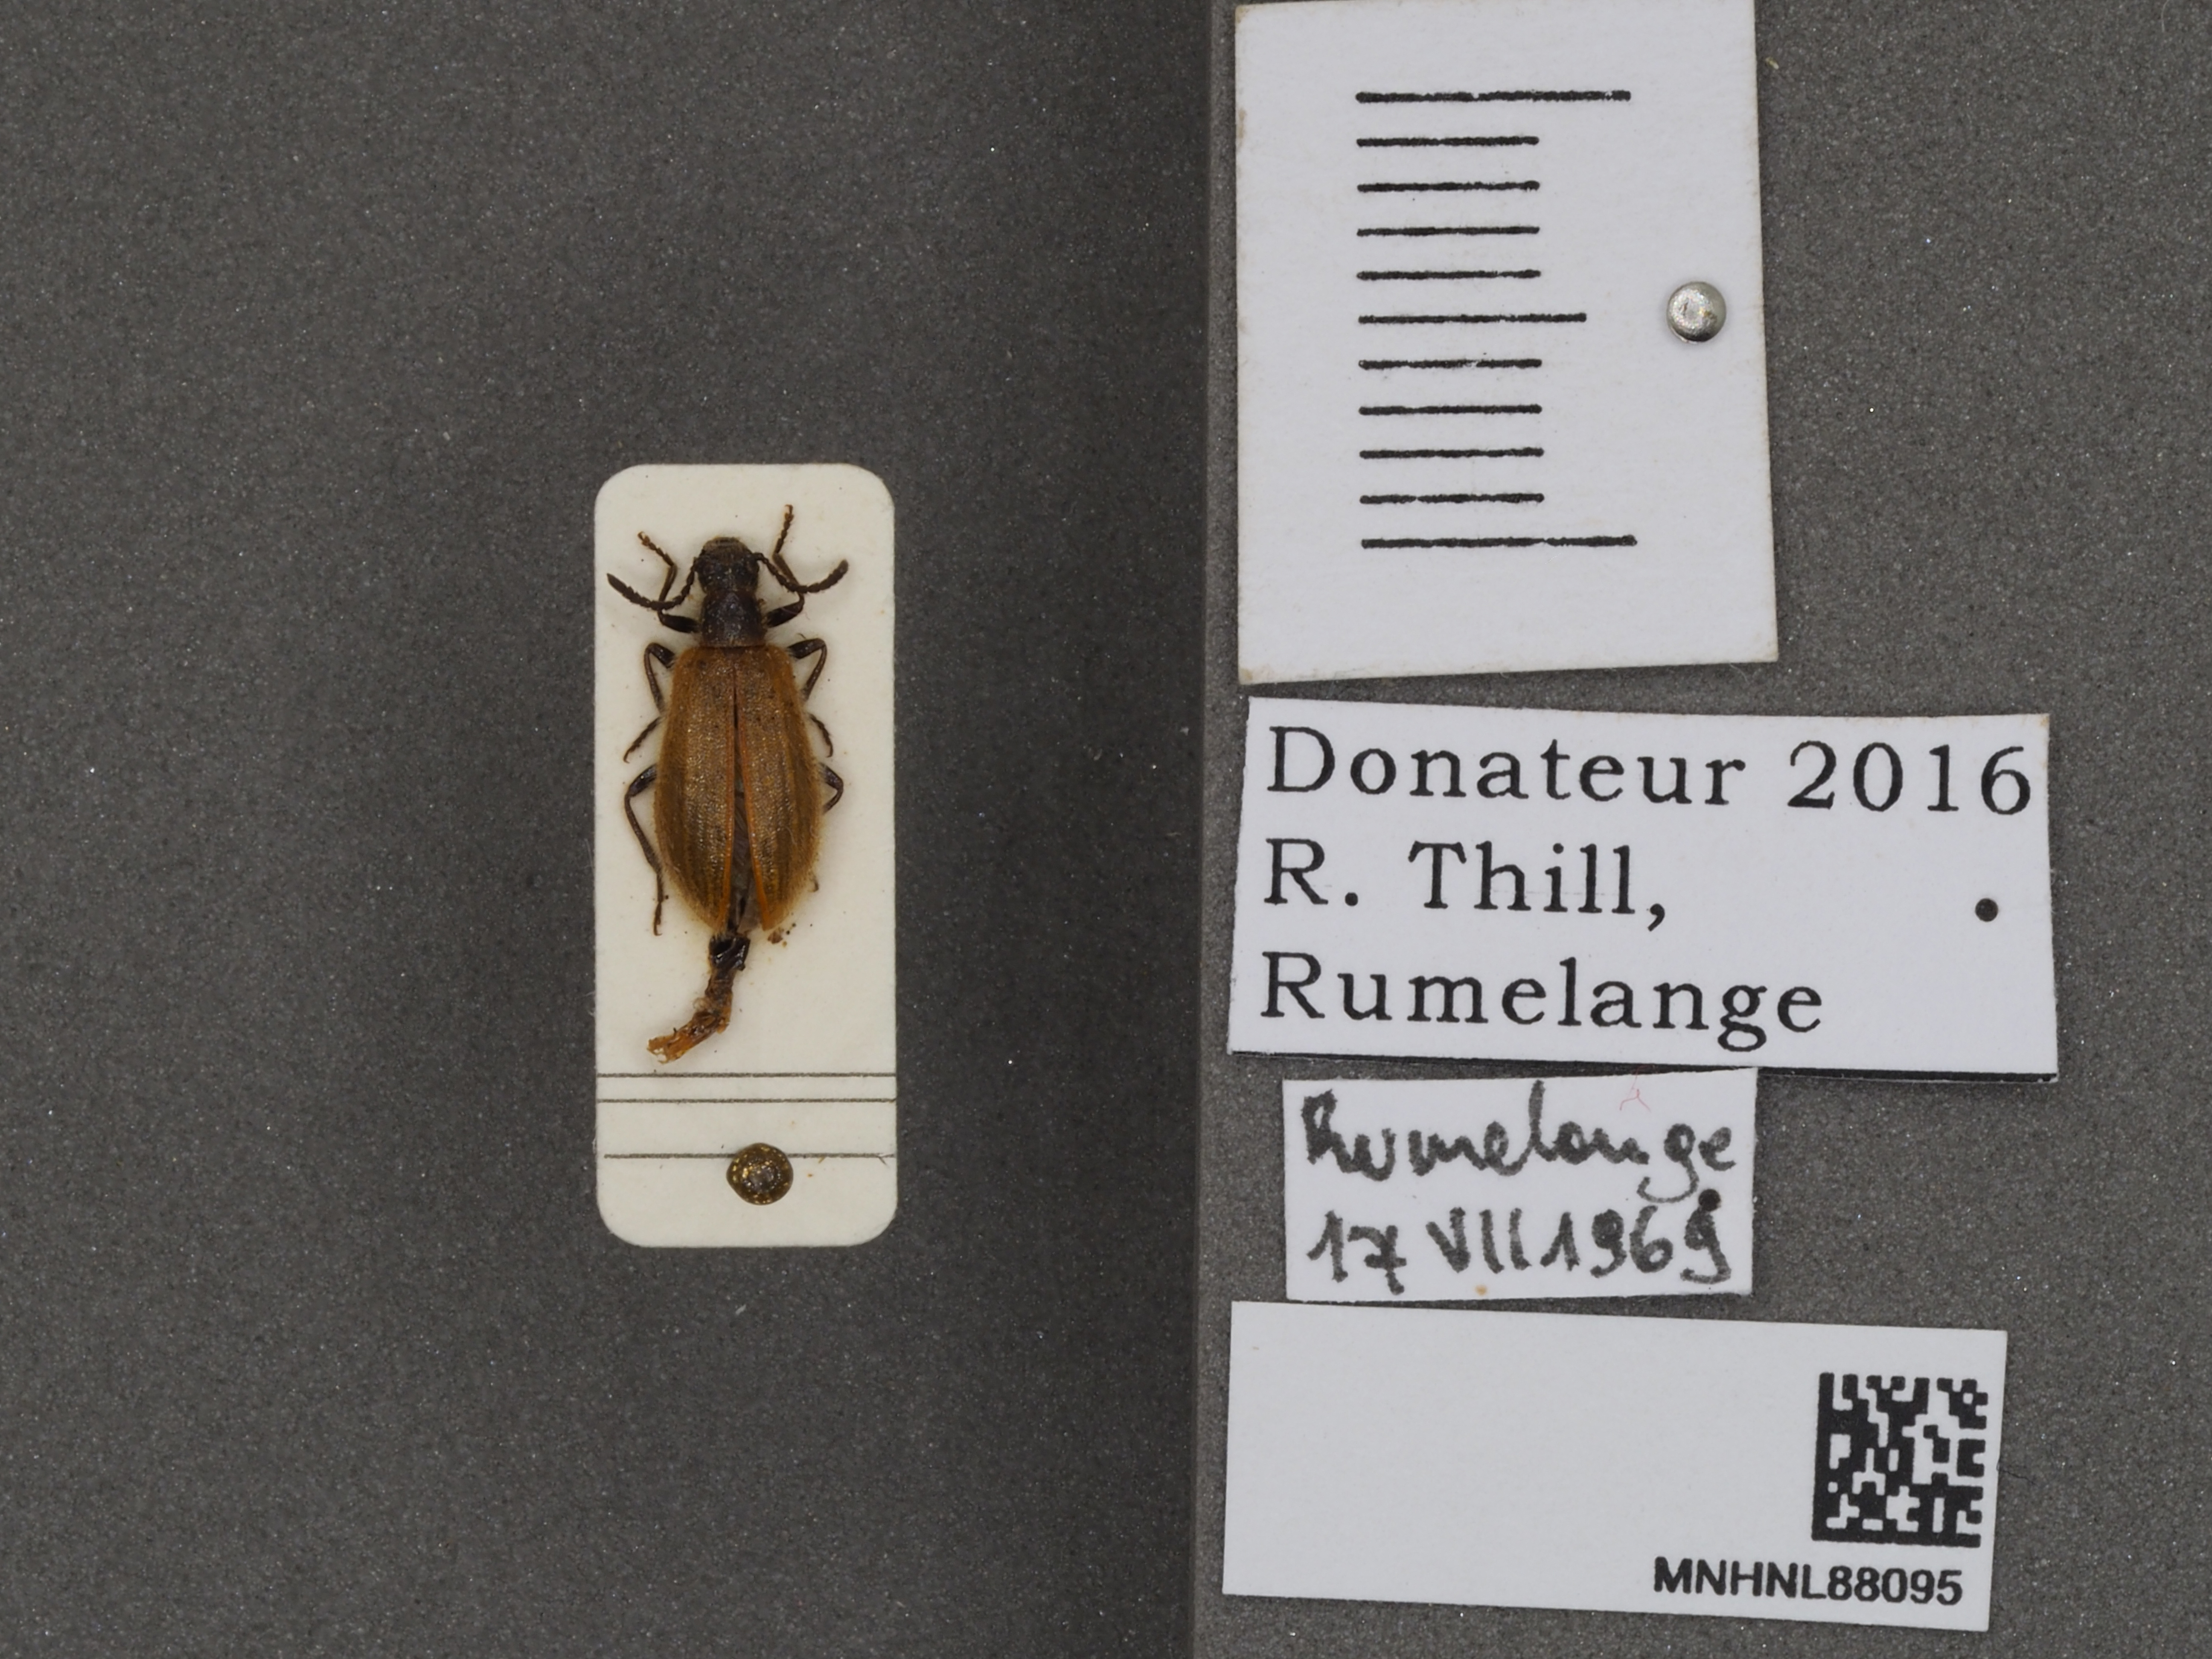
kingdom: Animalia
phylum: Arthropoda
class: Insecta
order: Coleoptera
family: Tenebrionidae
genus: Lagria
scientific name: Lagria hirta
